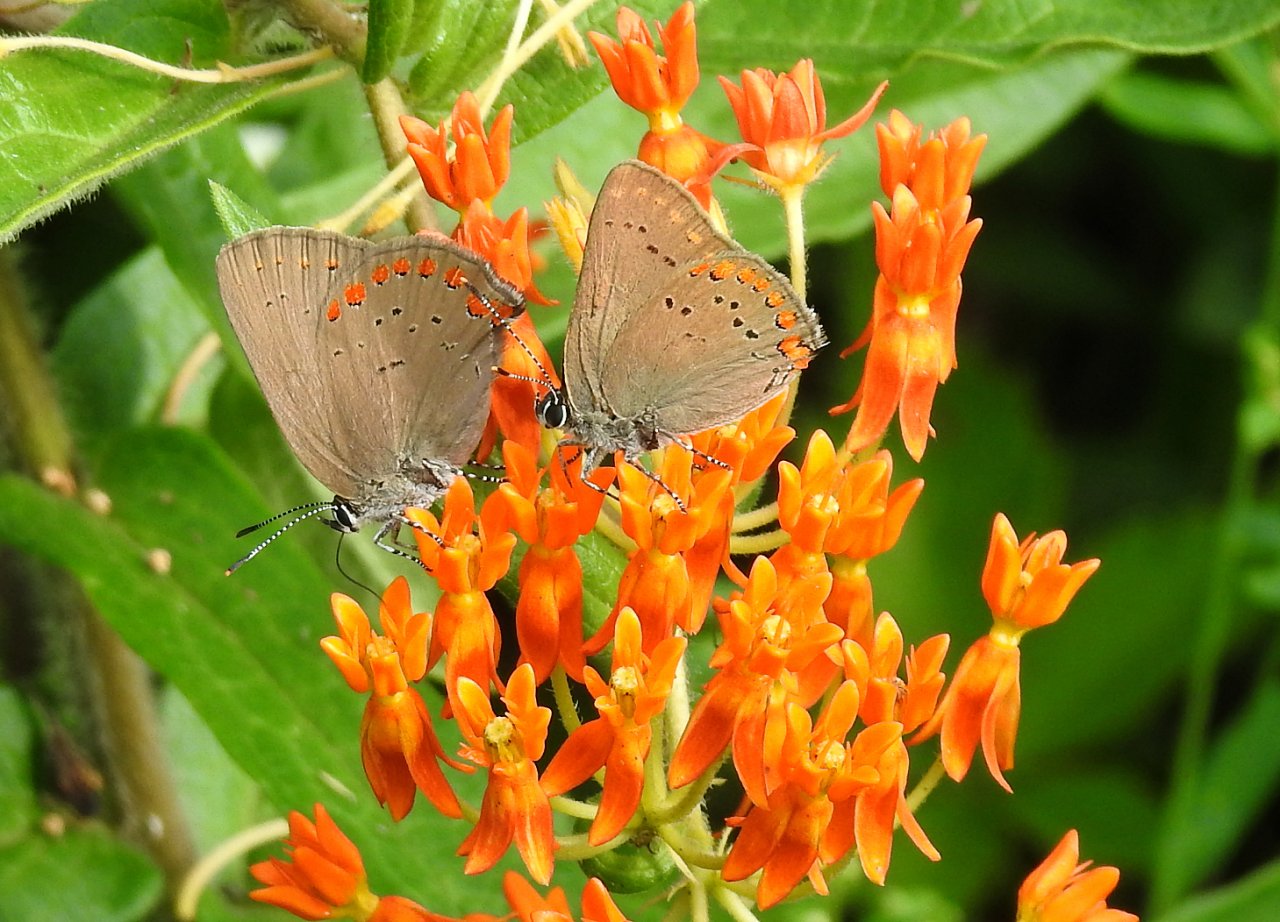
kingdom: Animalia
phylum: Arthropoda
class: Insecta
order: Lepidoptera
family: Lycaenidae
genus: Harkenclenus
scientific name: Harkenclenus titus
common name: Coral Hairstreak
